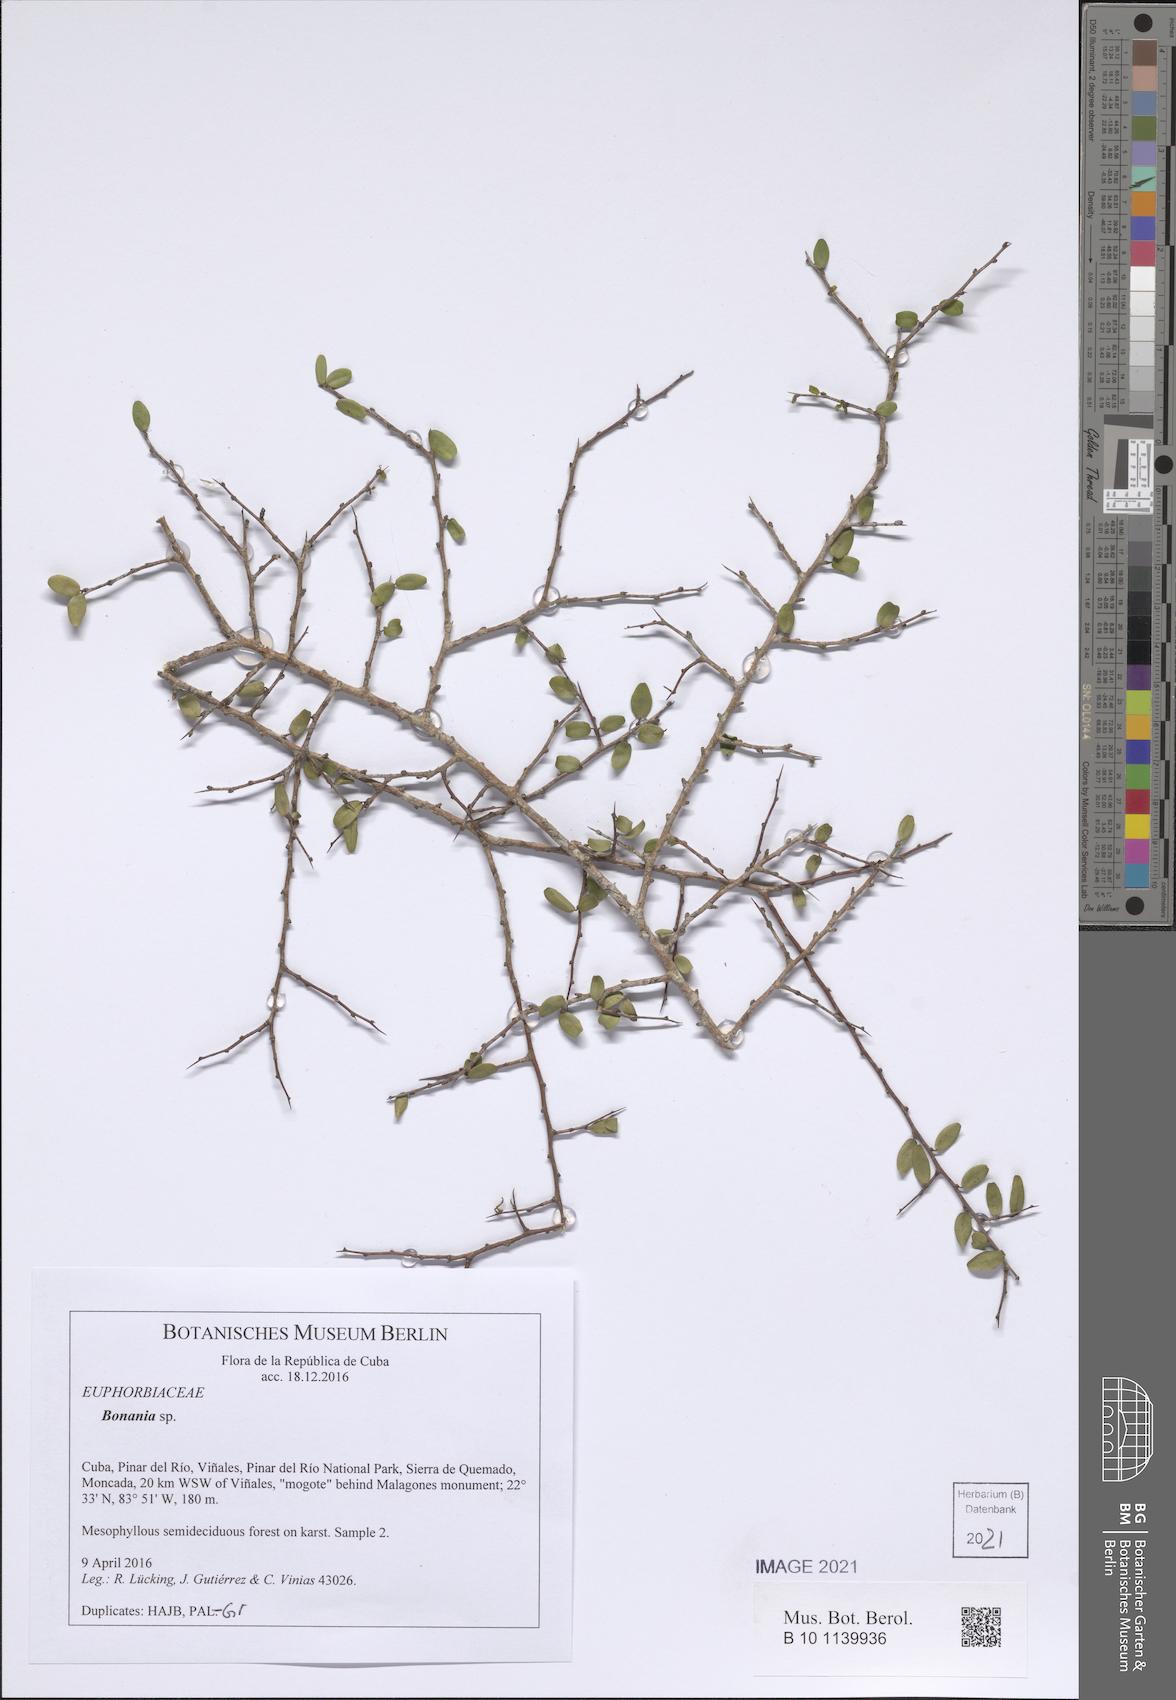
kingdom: Plantae
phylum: Tracheophyta
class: Magnoliopsida
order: Malpighiales
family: Euphorbiaceae
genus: Bonania
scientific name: Bonania
